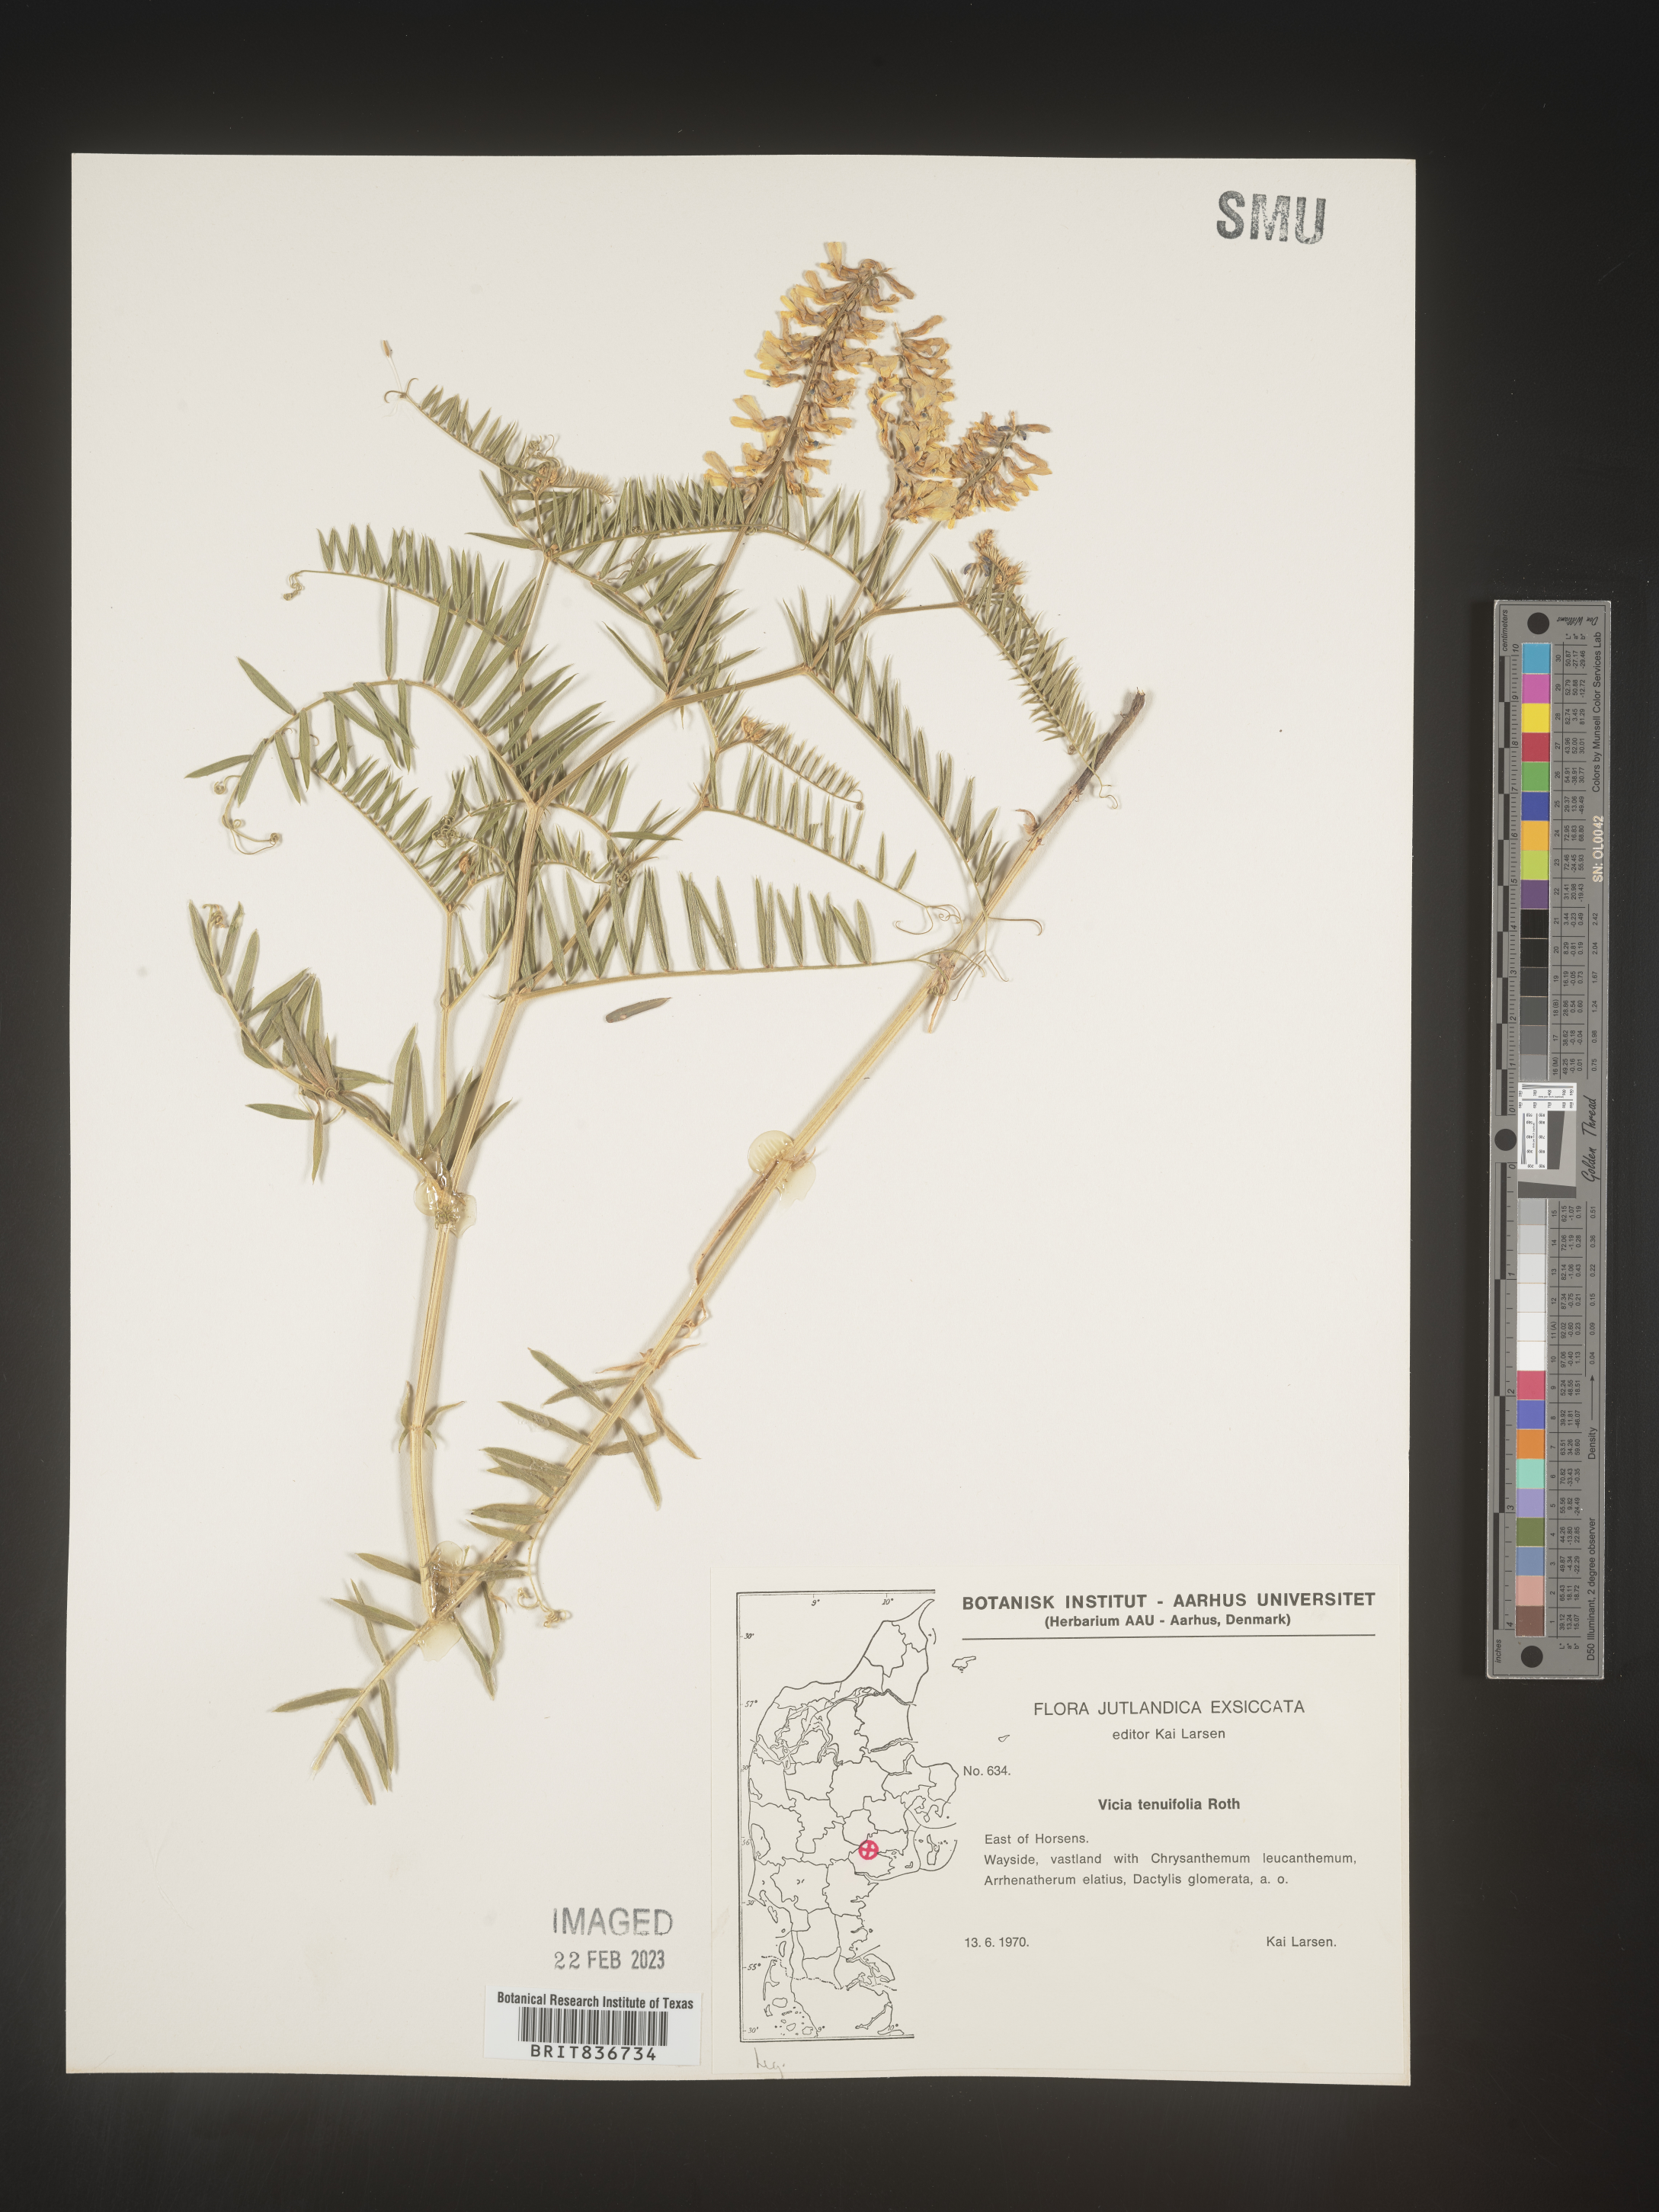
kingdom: Plantae
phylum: Tracheophyta
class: Magnoliopsida
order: Fabales
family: Fabaceae
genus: Vicia
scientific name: Vicia
